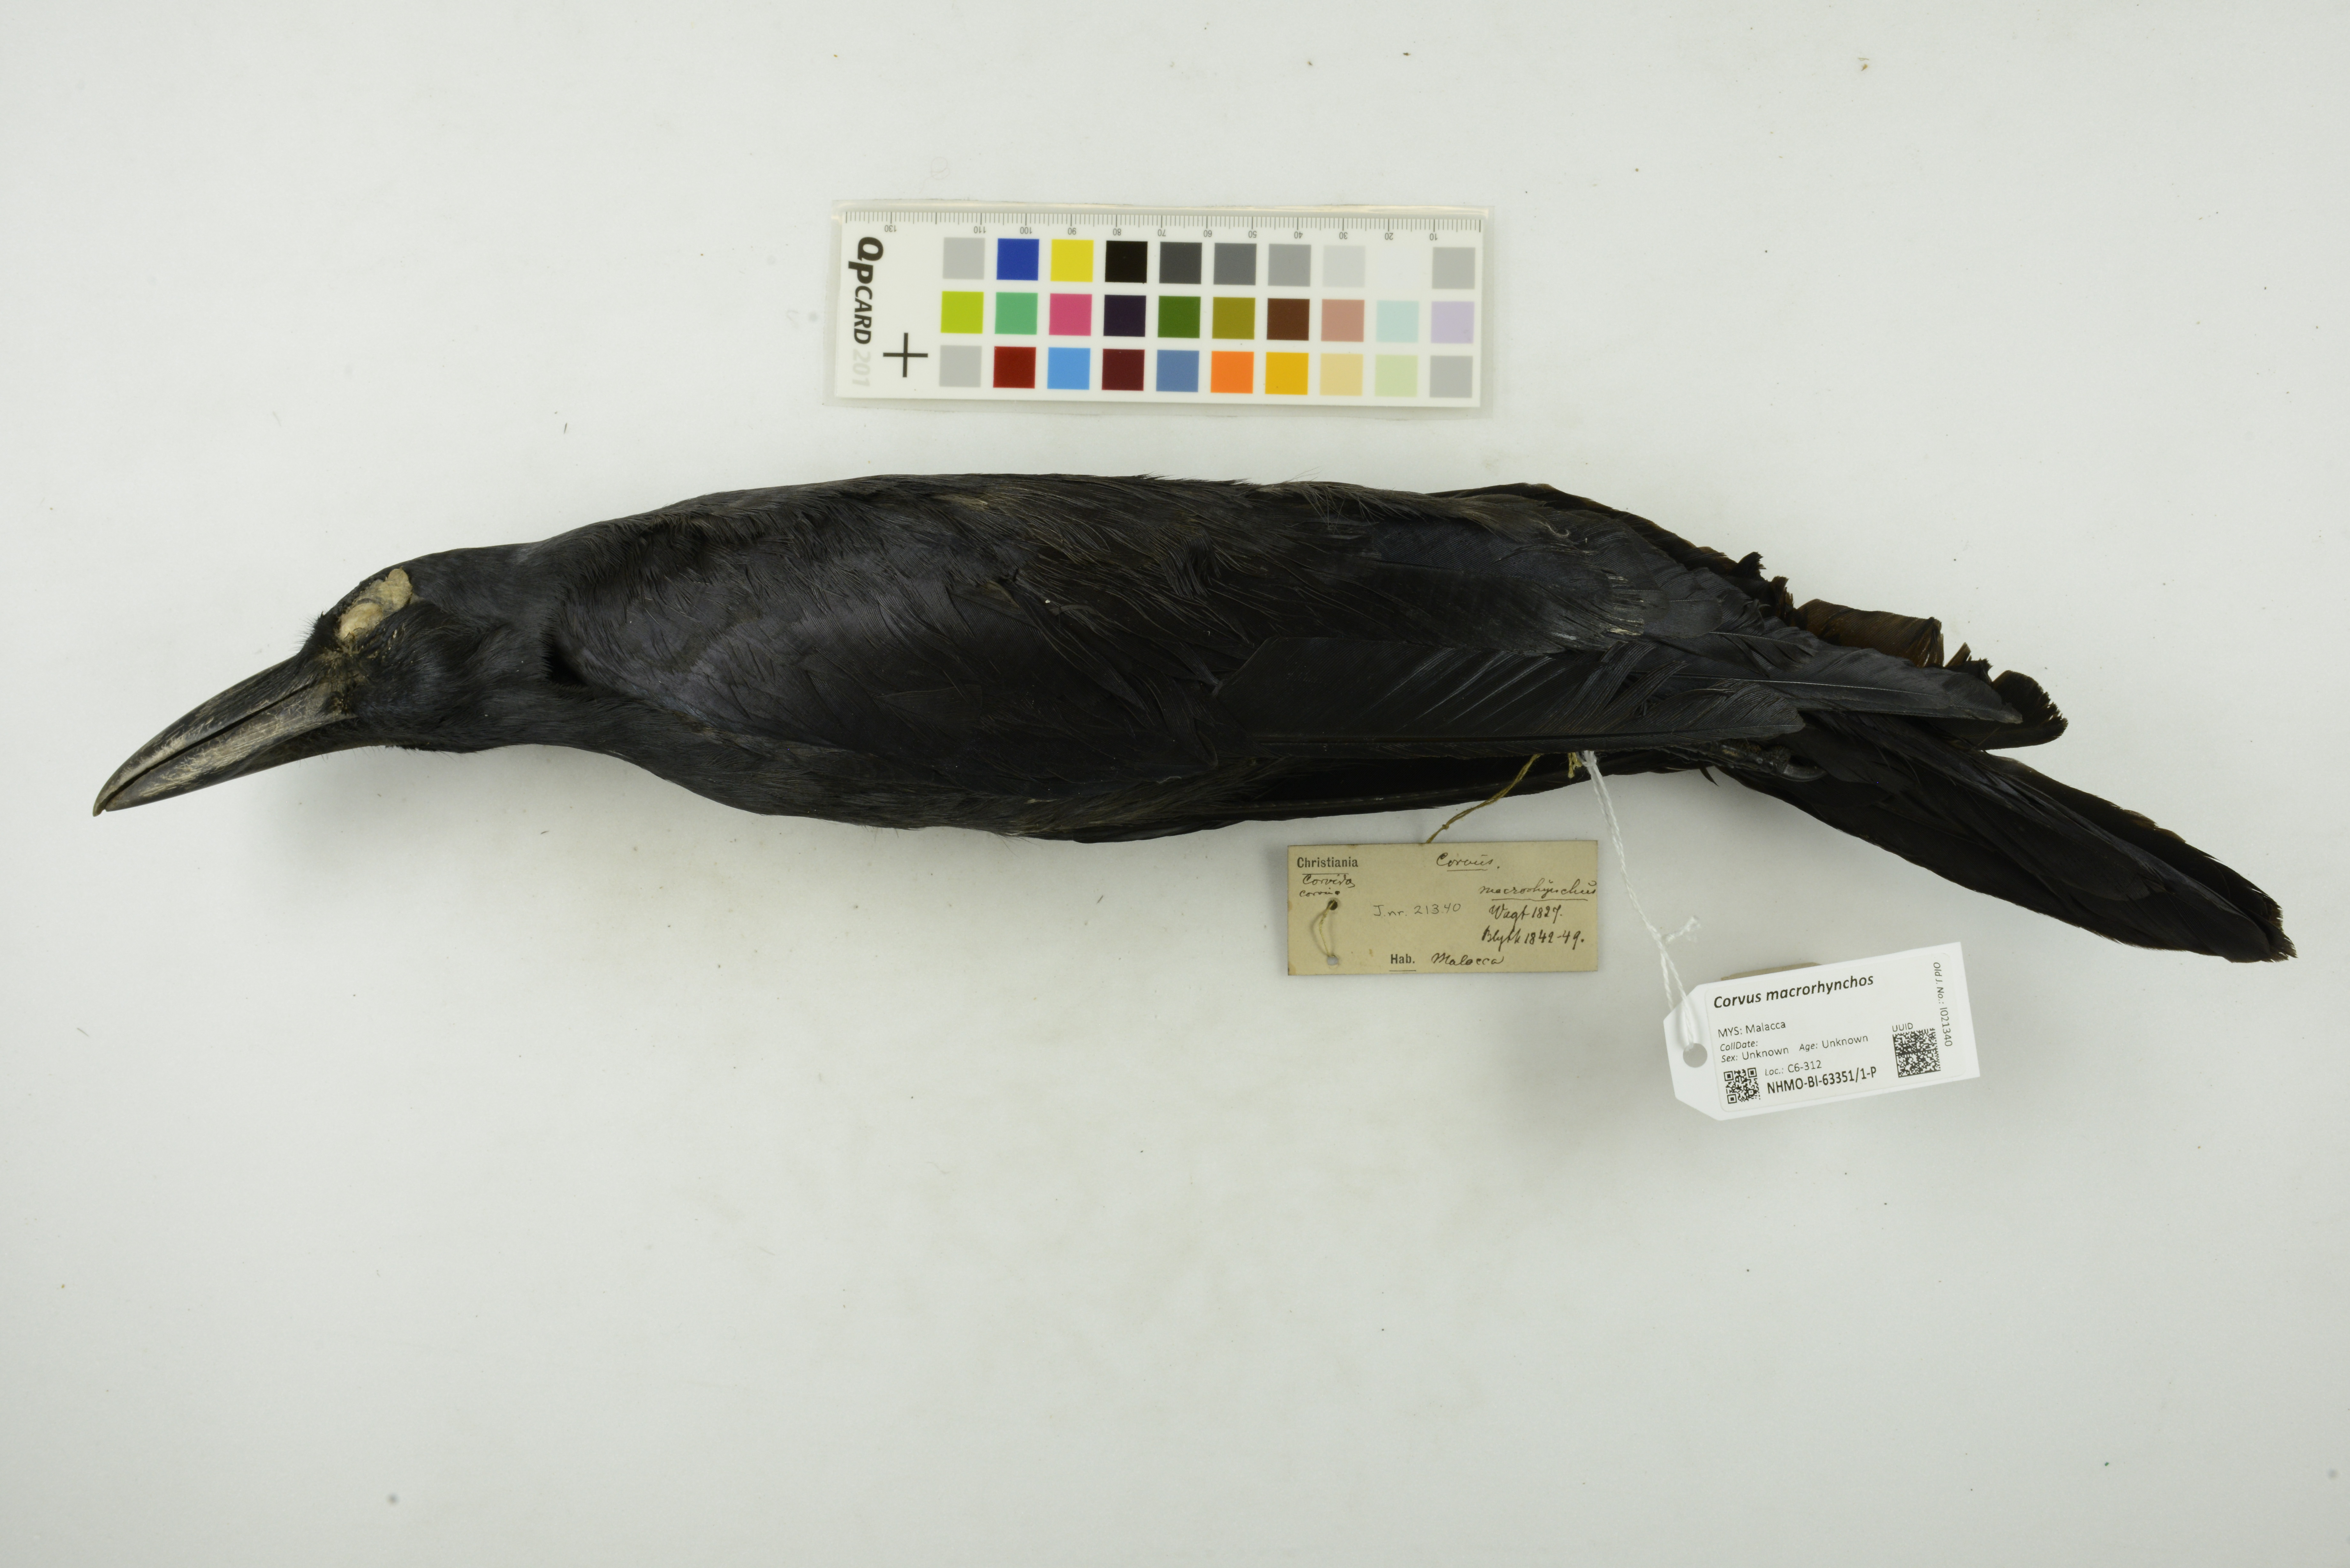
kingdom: Animalia
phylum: Chordata
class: Aves
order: Passeriformes
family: Corvidae
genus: Corvus
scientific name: Corvus macrorhynchos
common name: Large-billed crow
